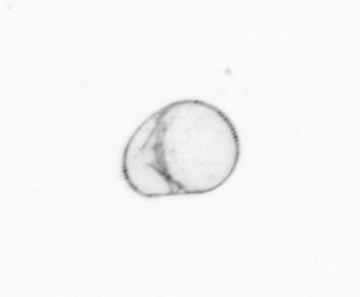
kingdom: Chromista
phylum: Myzozoa
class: Dinophyceae
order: Noctilucales
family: Noctilucaceae
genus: Noctiluca
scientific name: Noctiluca scintillans
